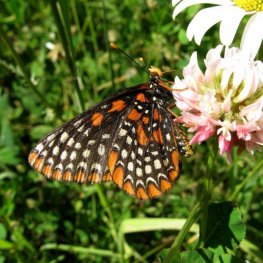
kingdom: Animalia
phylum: Arthropoda
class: Insecta
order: Lepidoptera
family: Nymphalidae
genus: Euphydryas
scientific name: Euphydryas phaeton
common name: Baltimore Checkerspot
